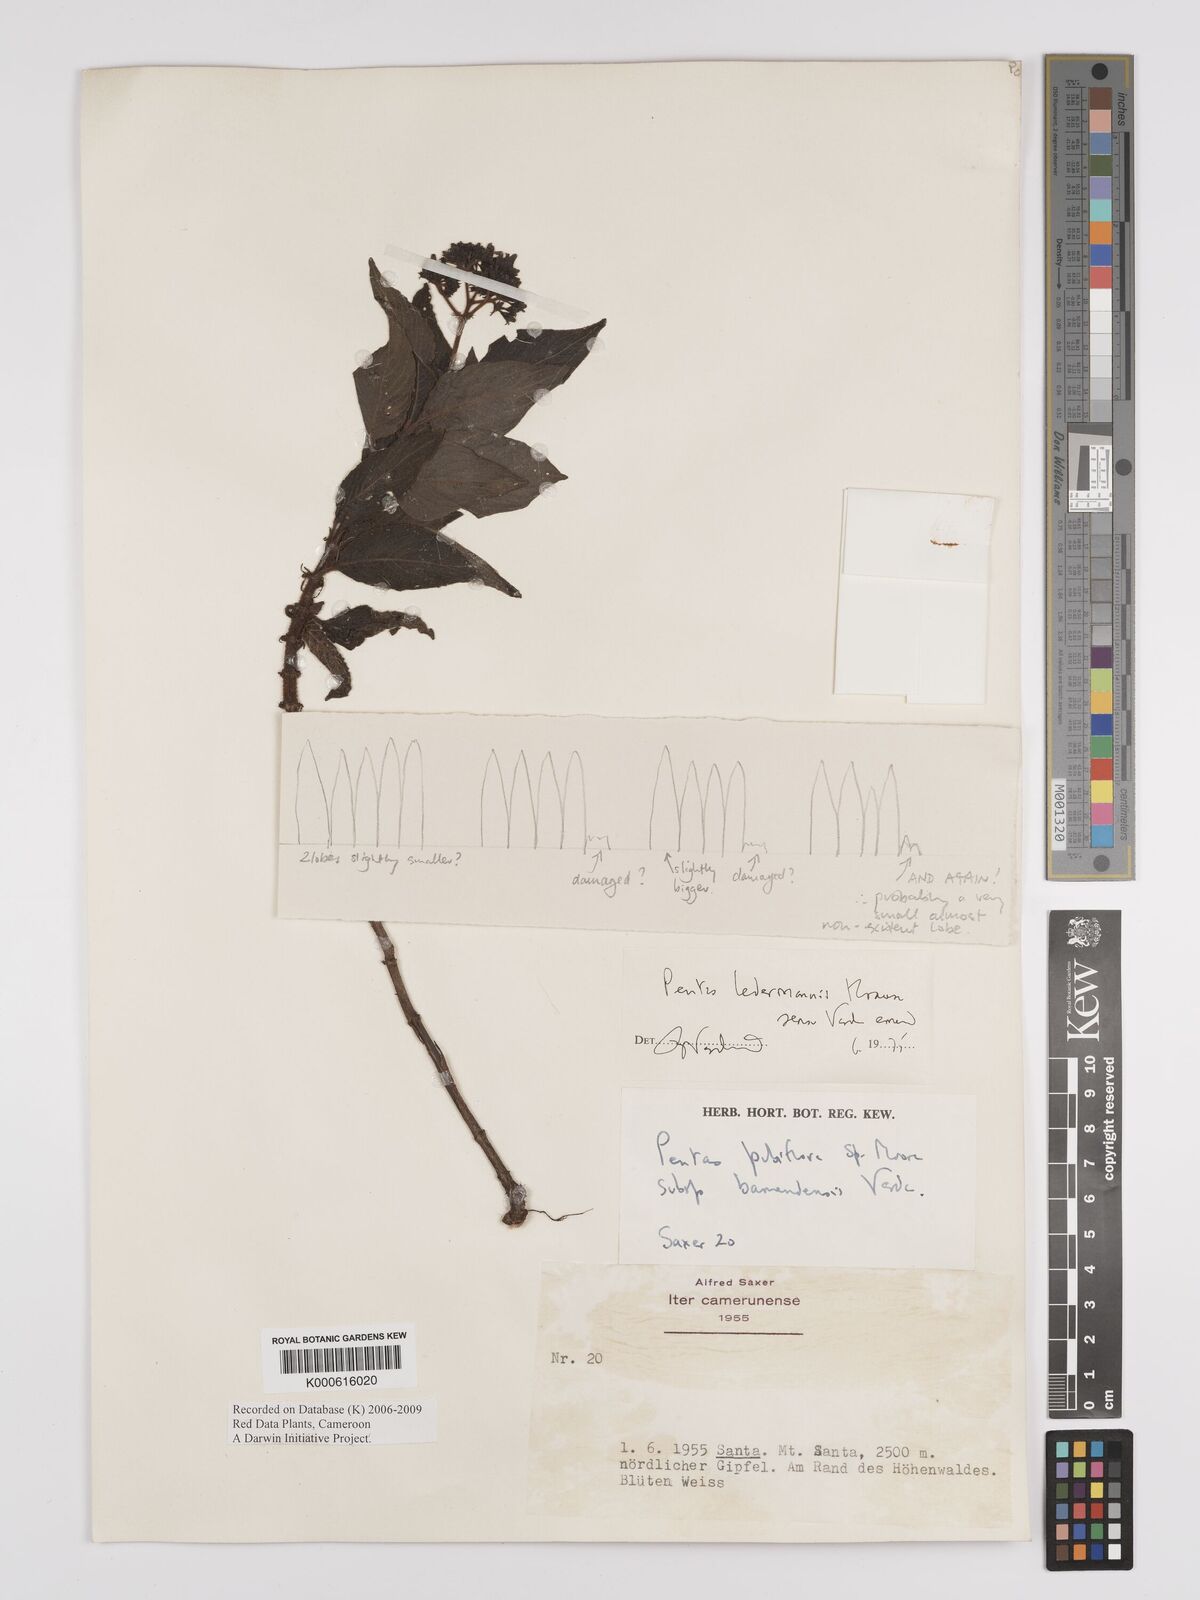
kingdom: Plantae
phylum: Tracheophyta
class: Magnoliopsida
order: Gentianales
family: Rubiaceae
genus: Phyllopentas
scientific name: Phyllopentas ledermannii
